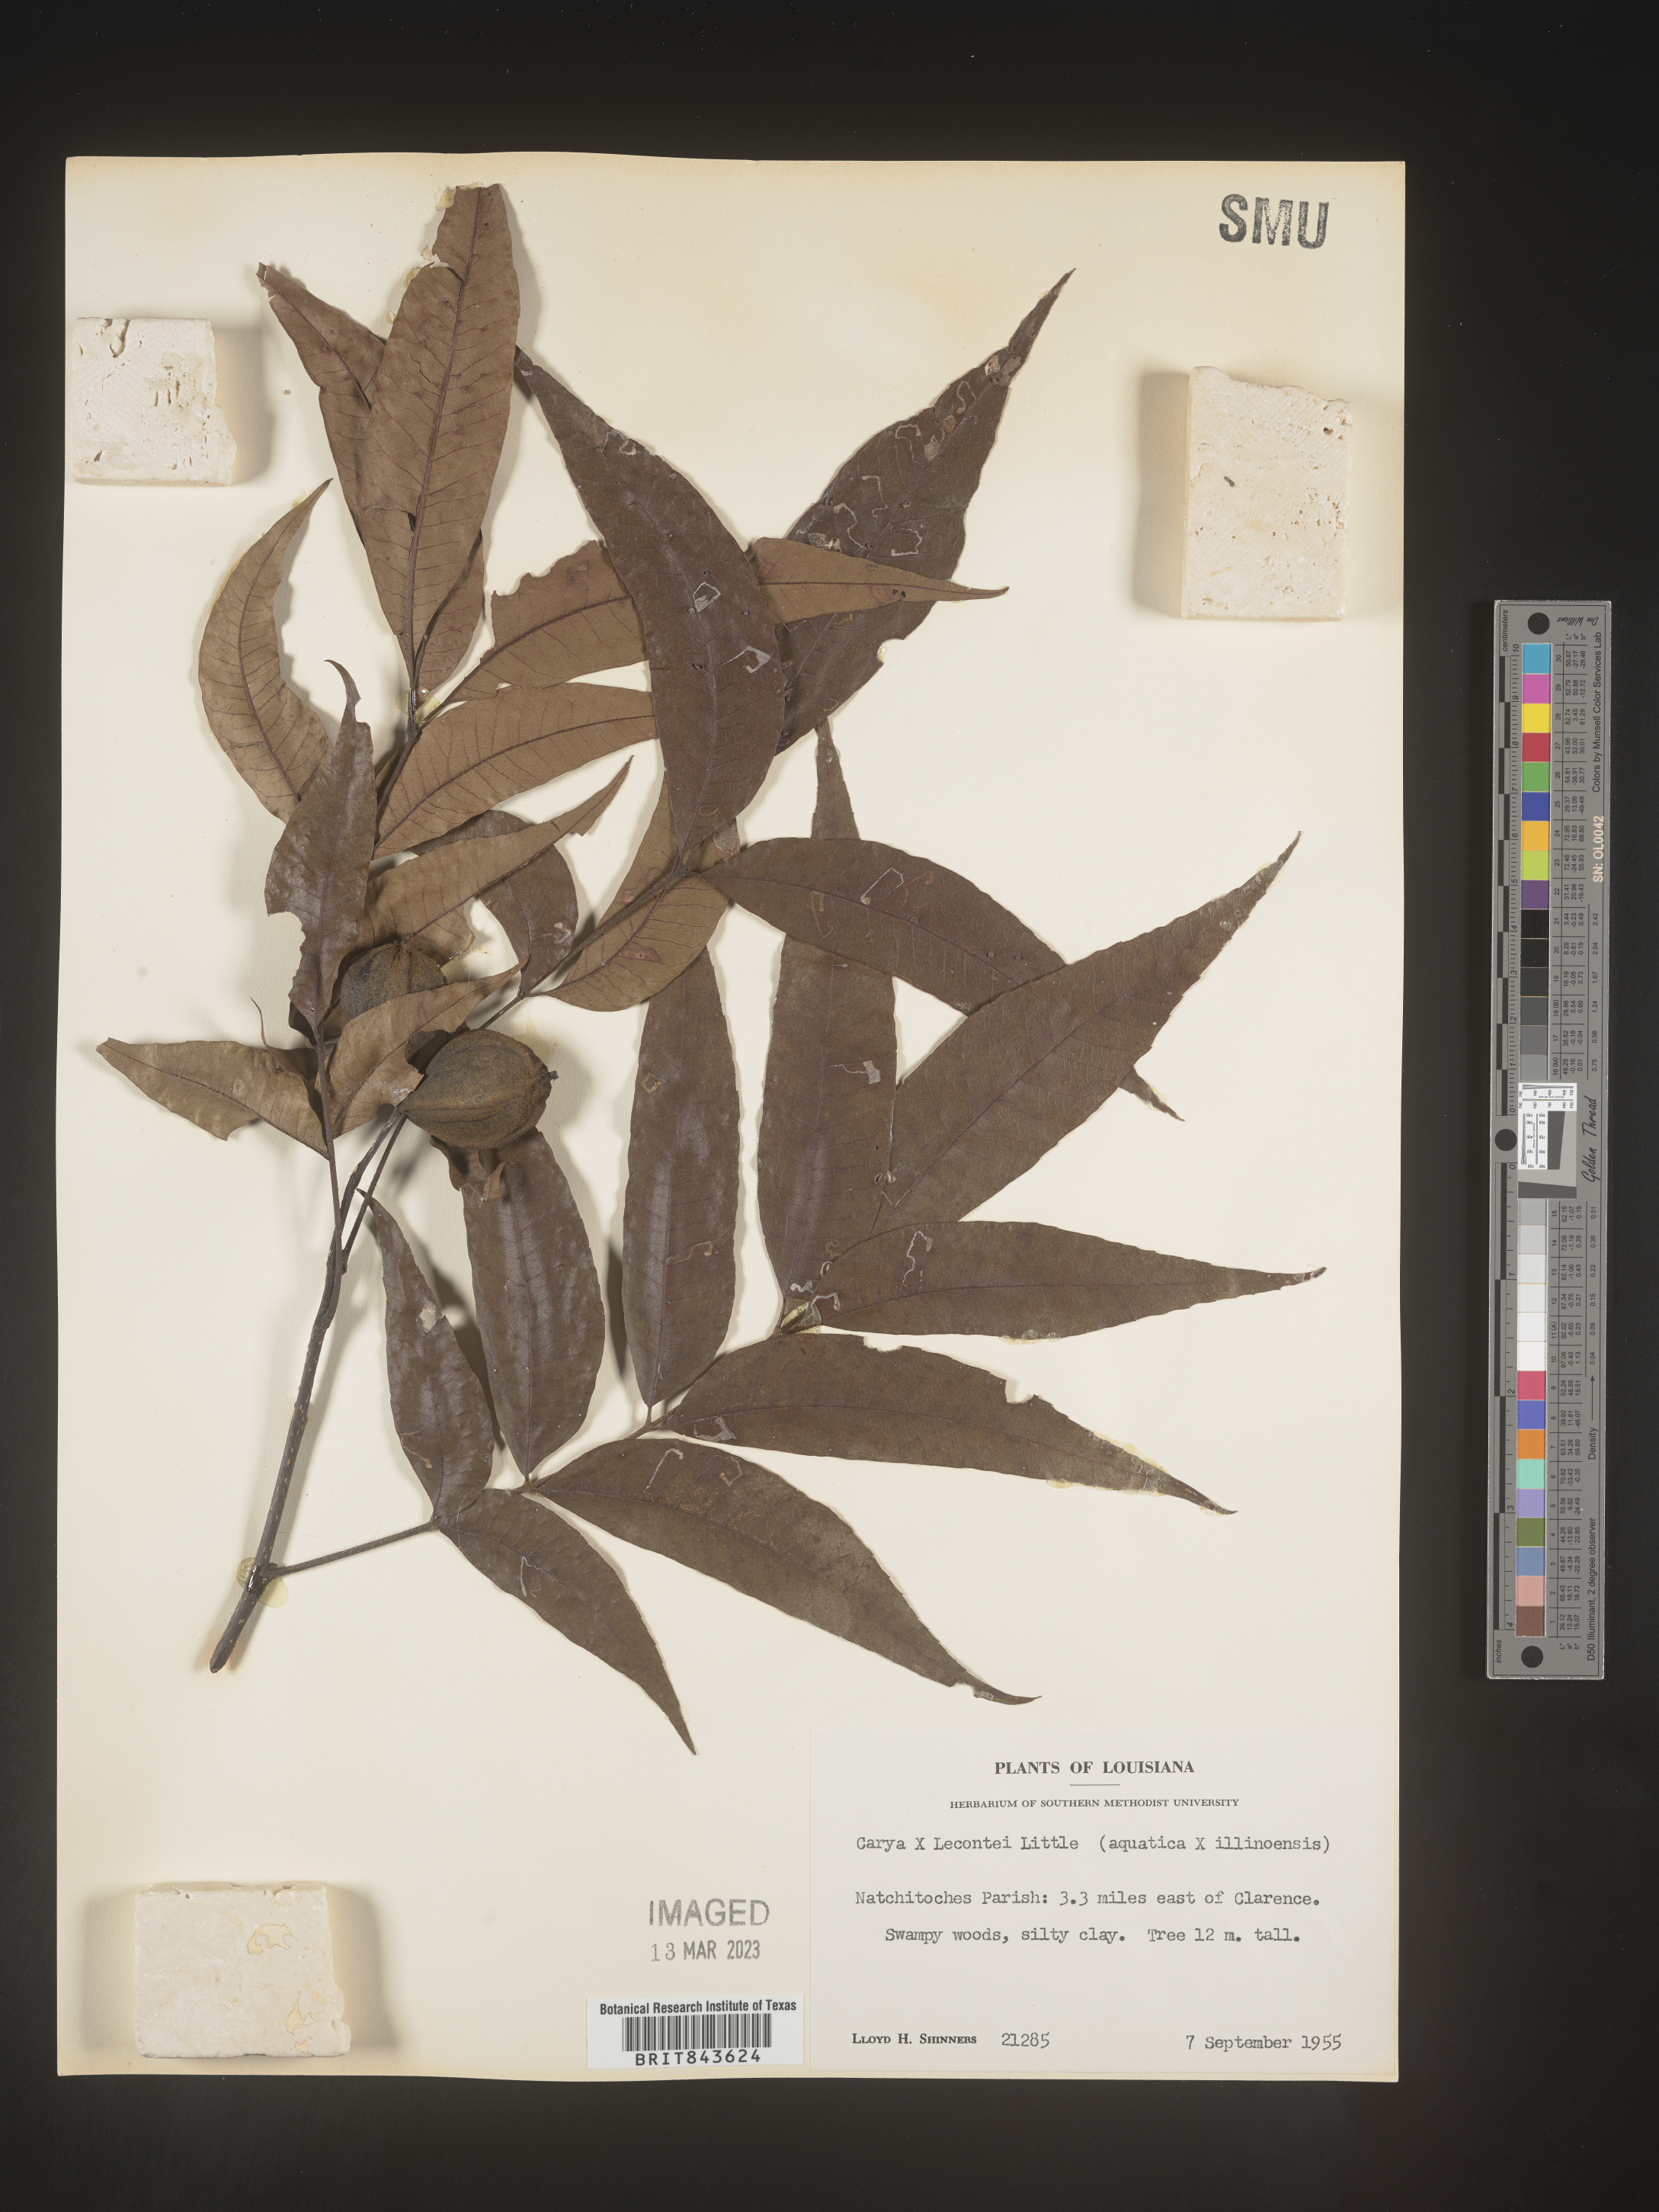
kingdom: Plantae
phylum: Tracheophyta
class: Magnoliopsida
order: Fagales
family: Juglandaceae
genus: Carya
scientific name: Carya
